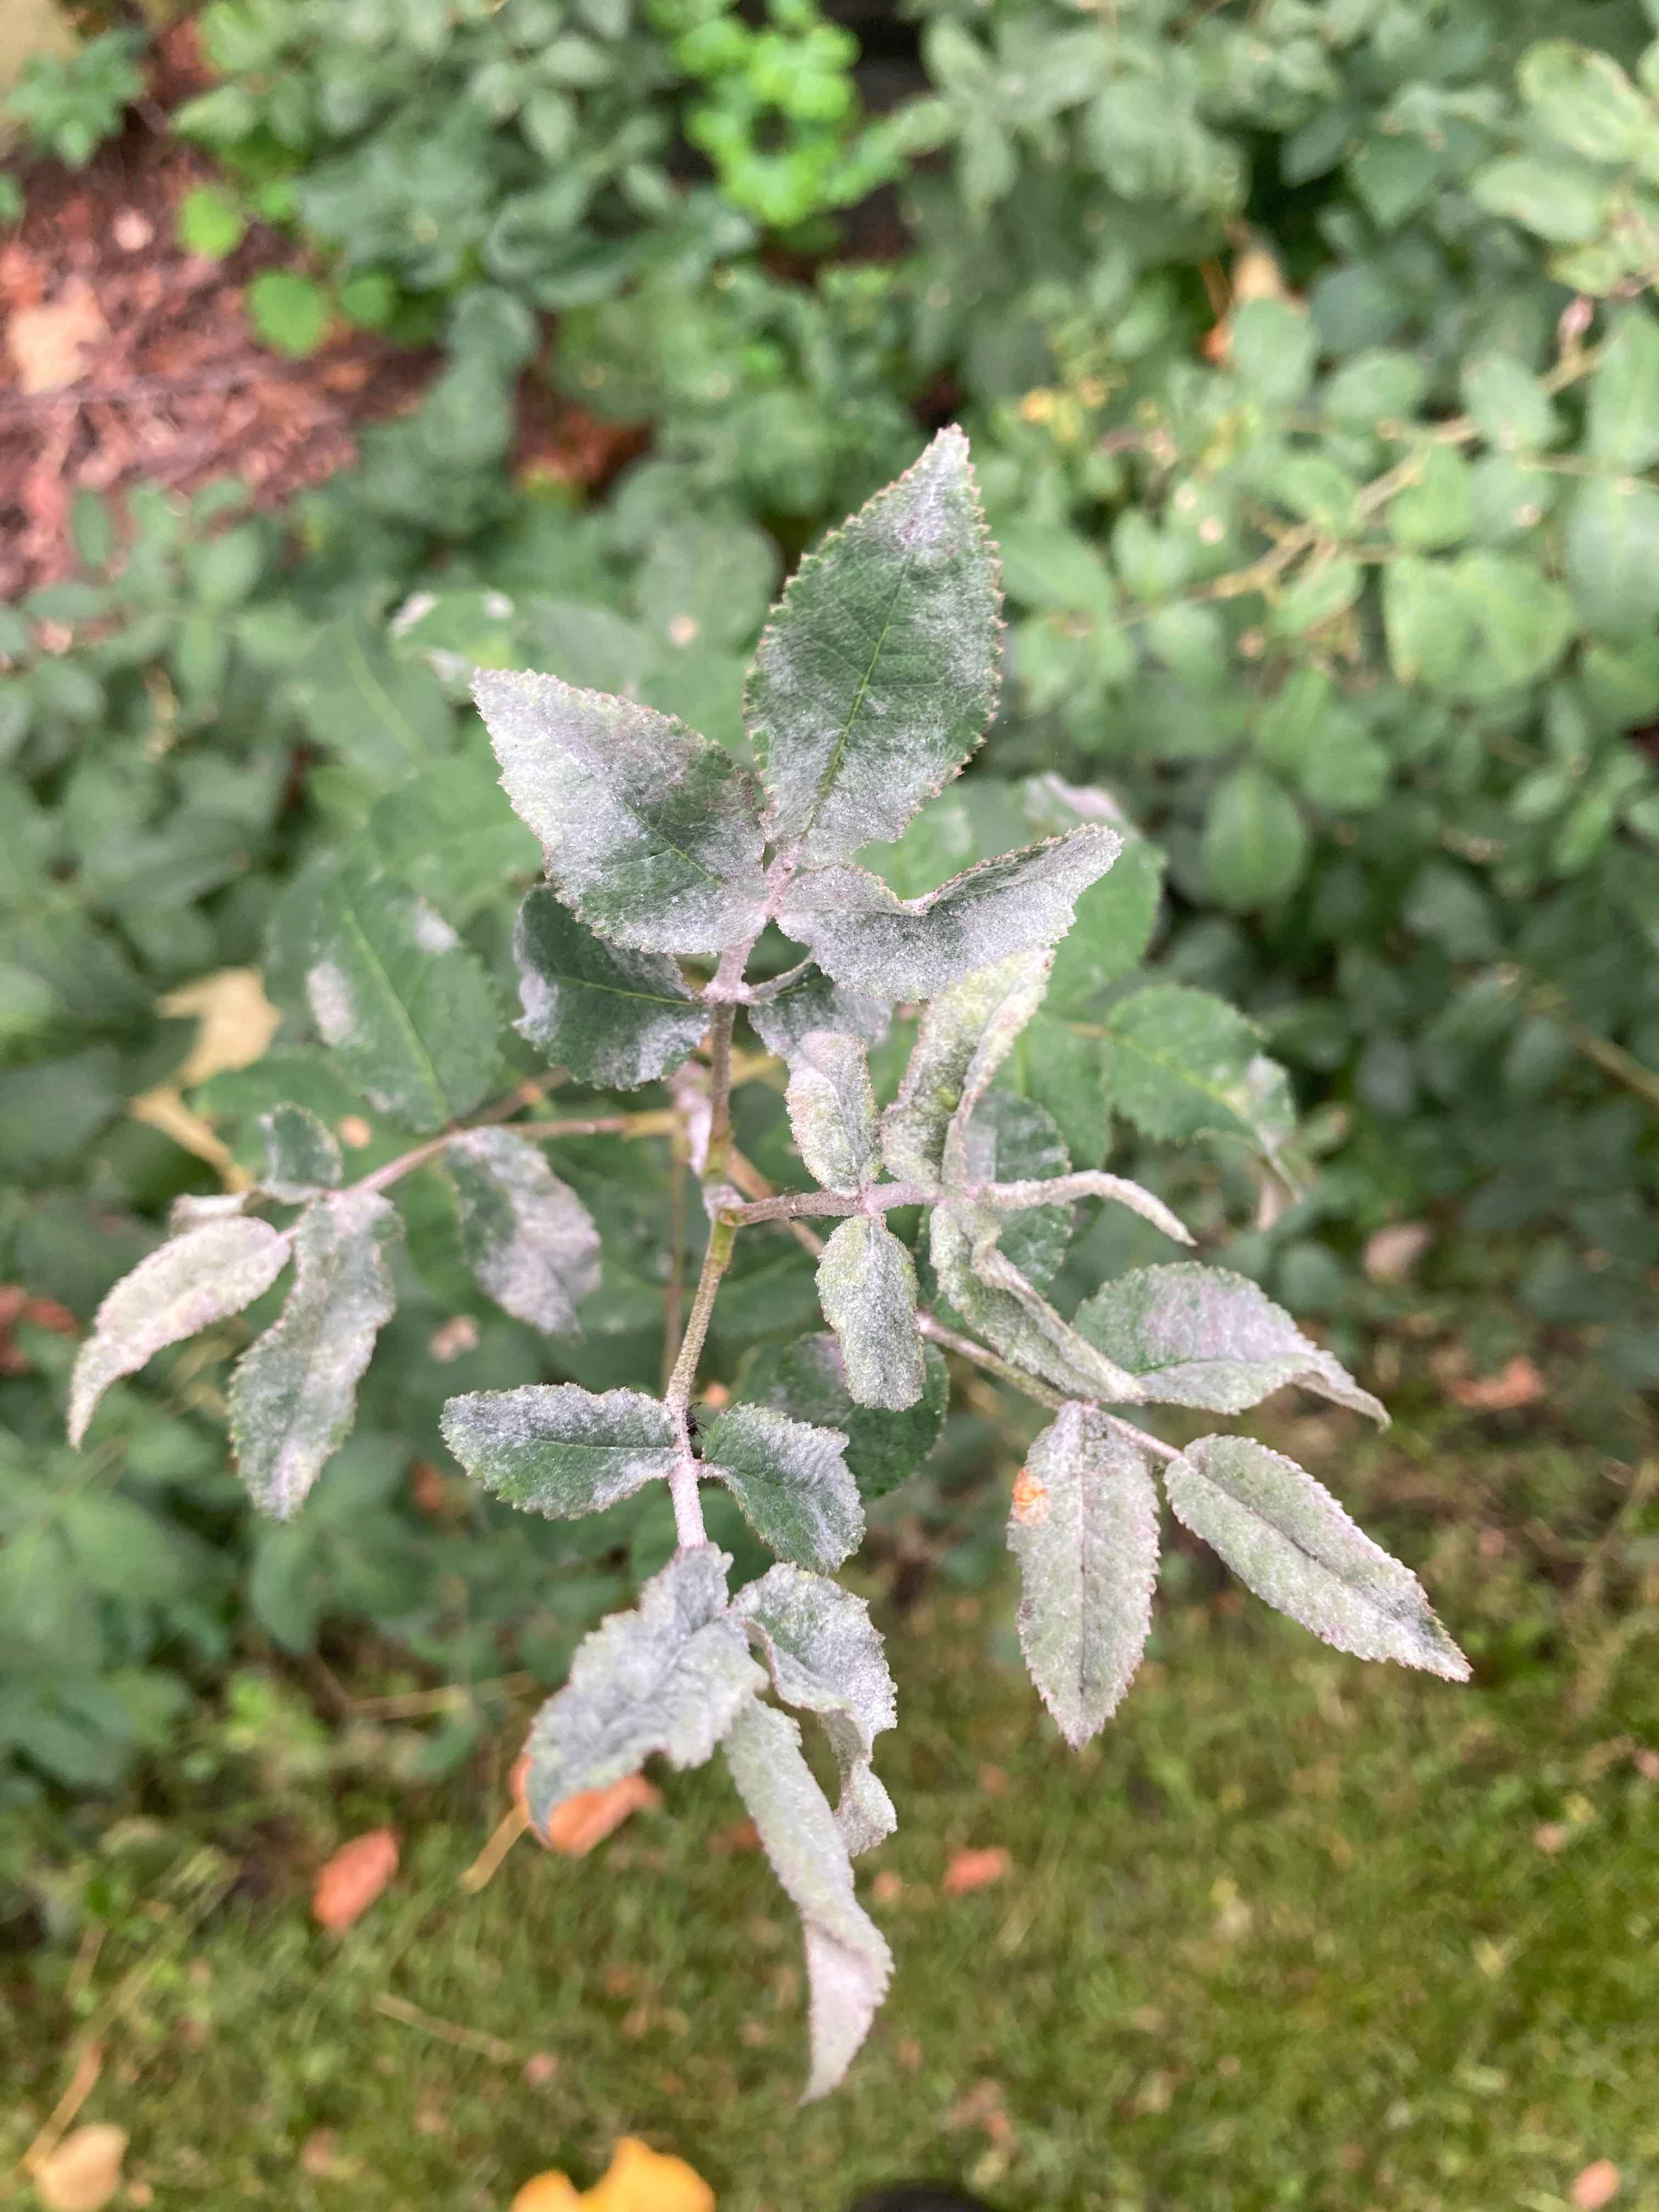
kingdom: Fungi
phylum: Ascomycota
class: Leotiomycetes
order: Helotiales
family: Erysiphaceae
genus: Podosphaera
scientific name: Podosphaera pannosa
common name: Rose mildew
